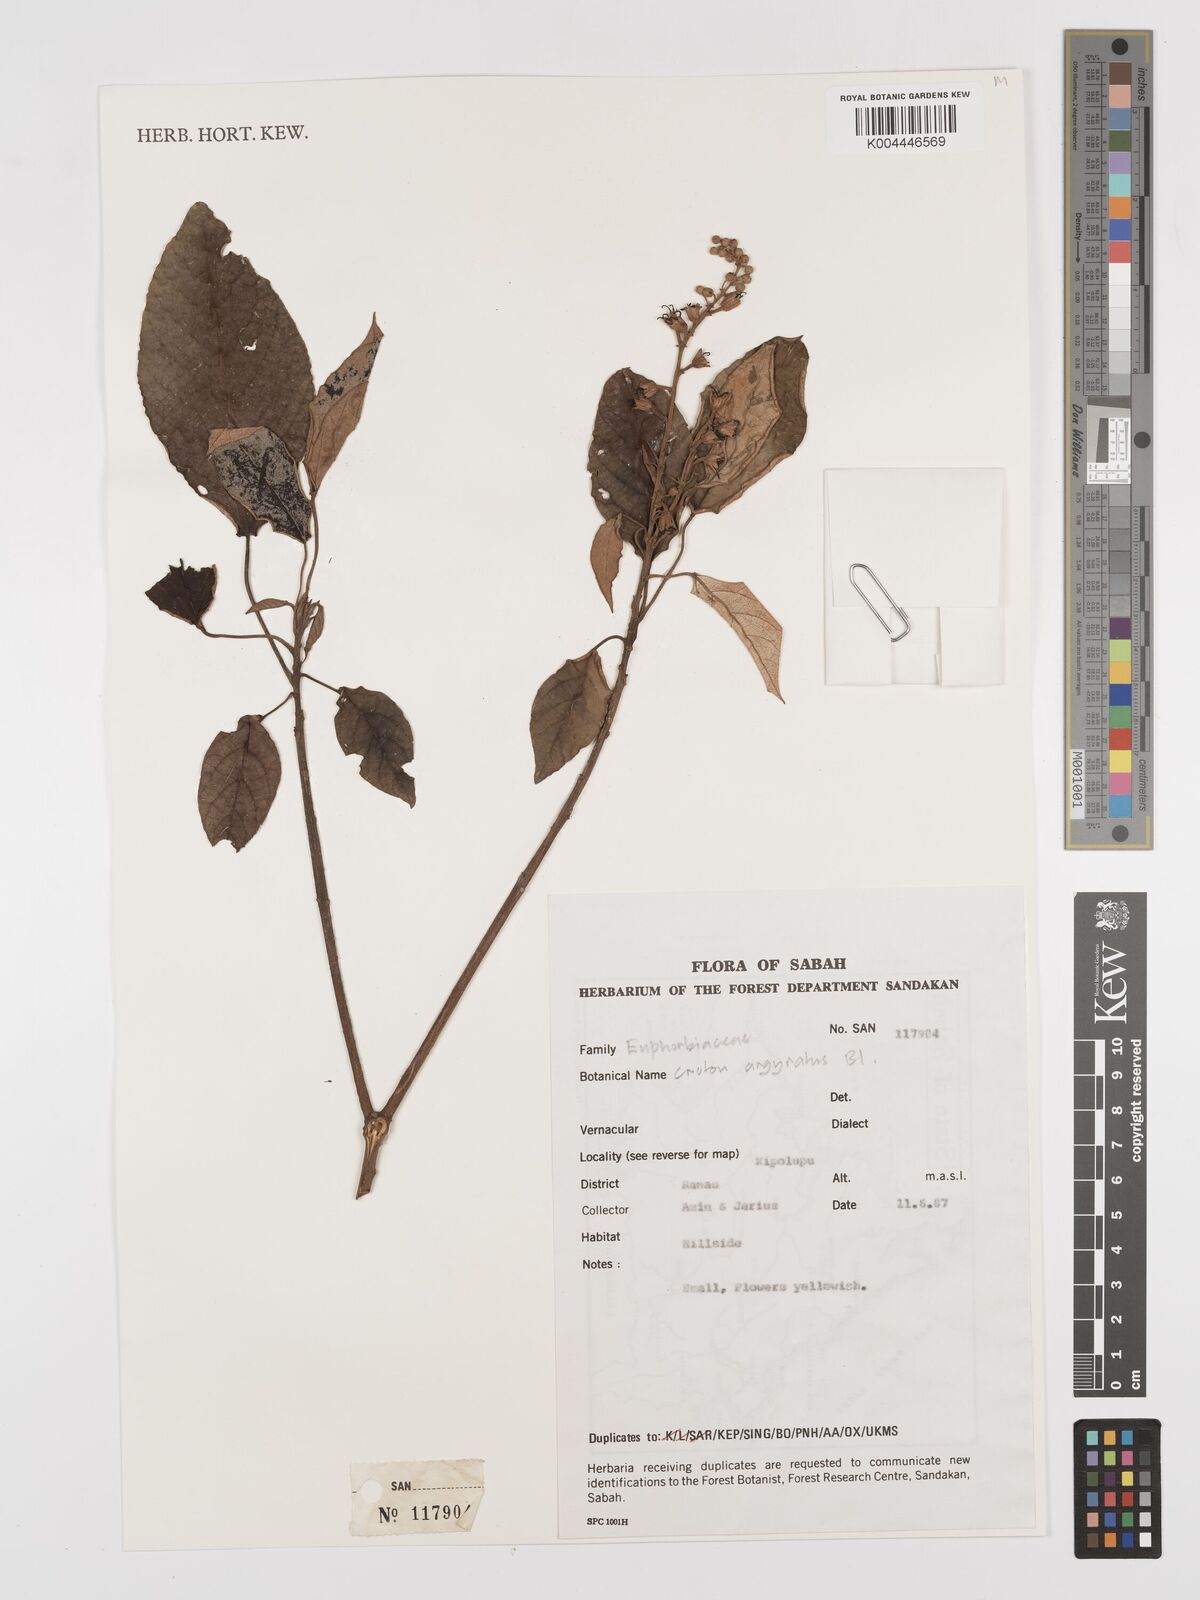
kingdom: Plantae
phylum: Tracheophyta
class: Magnoliopsida
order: Malpighiales
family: Euphorbiaceae
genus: Croton
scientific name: Croton argyratus
